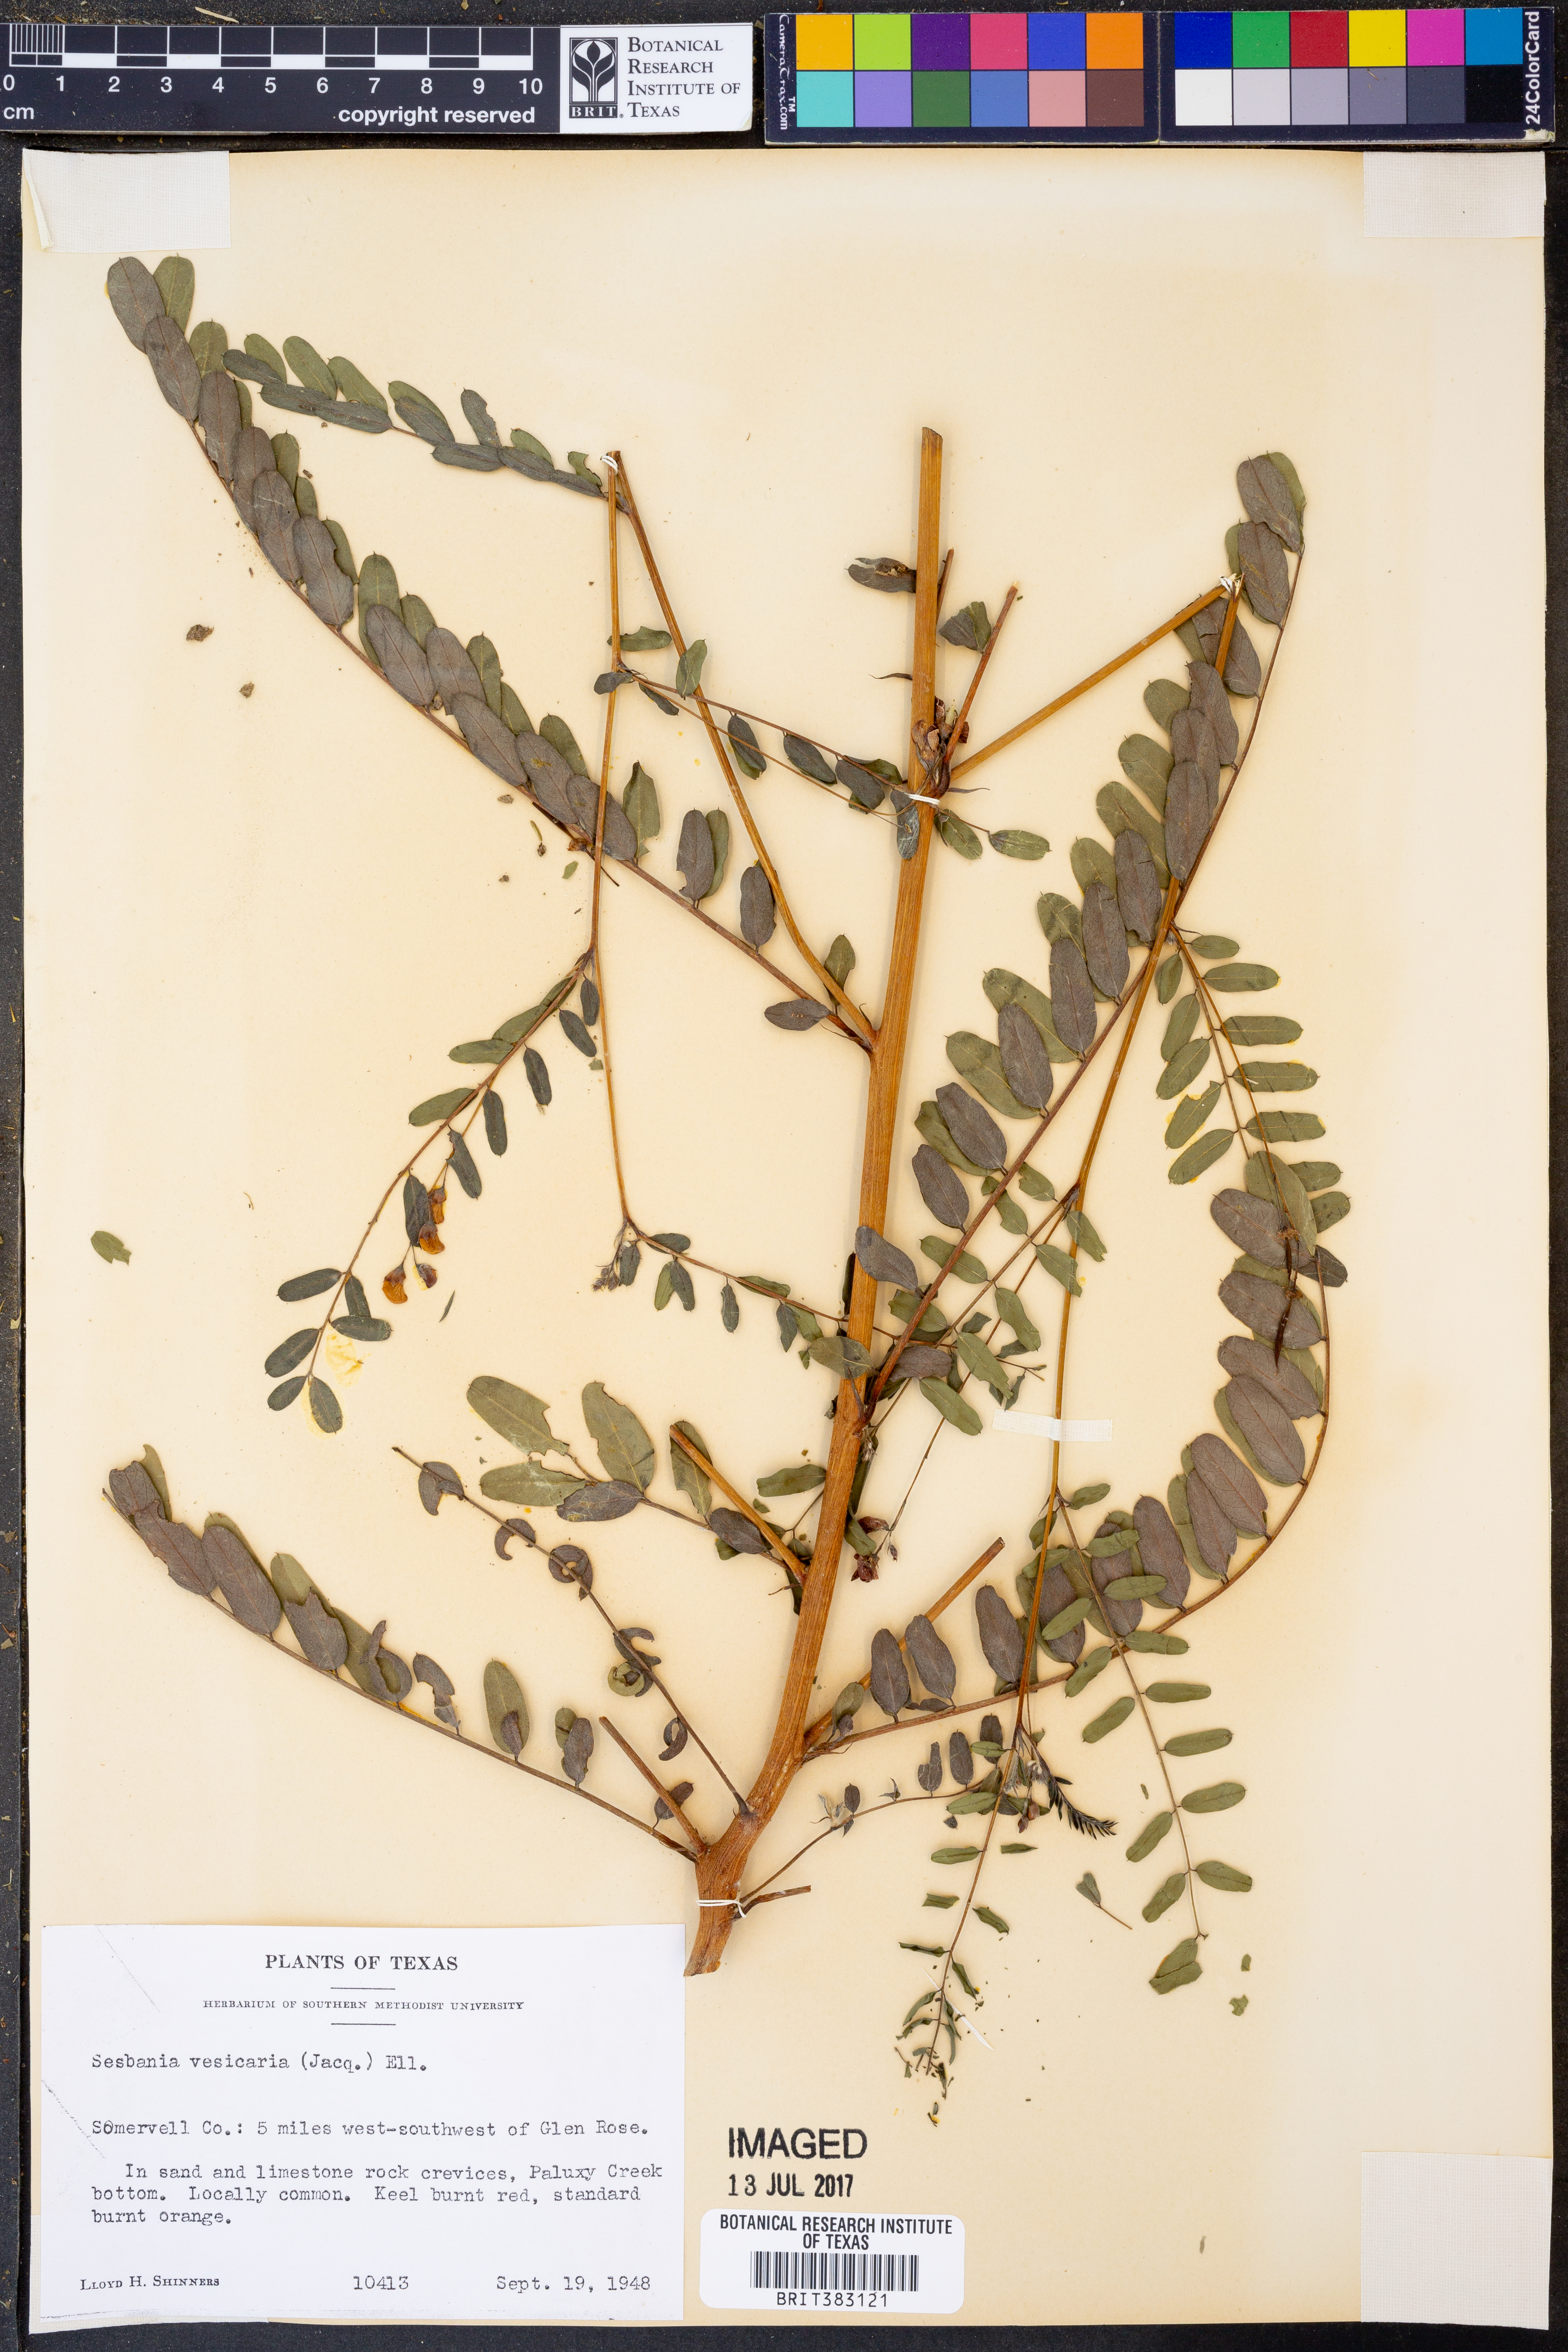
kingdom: Plantae
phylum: Tracheophyta
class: Magnoliopsida
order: Fabales
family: Fabaceae
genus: Sesbania
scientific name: Sesbania vesicaria
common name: Bagpod
